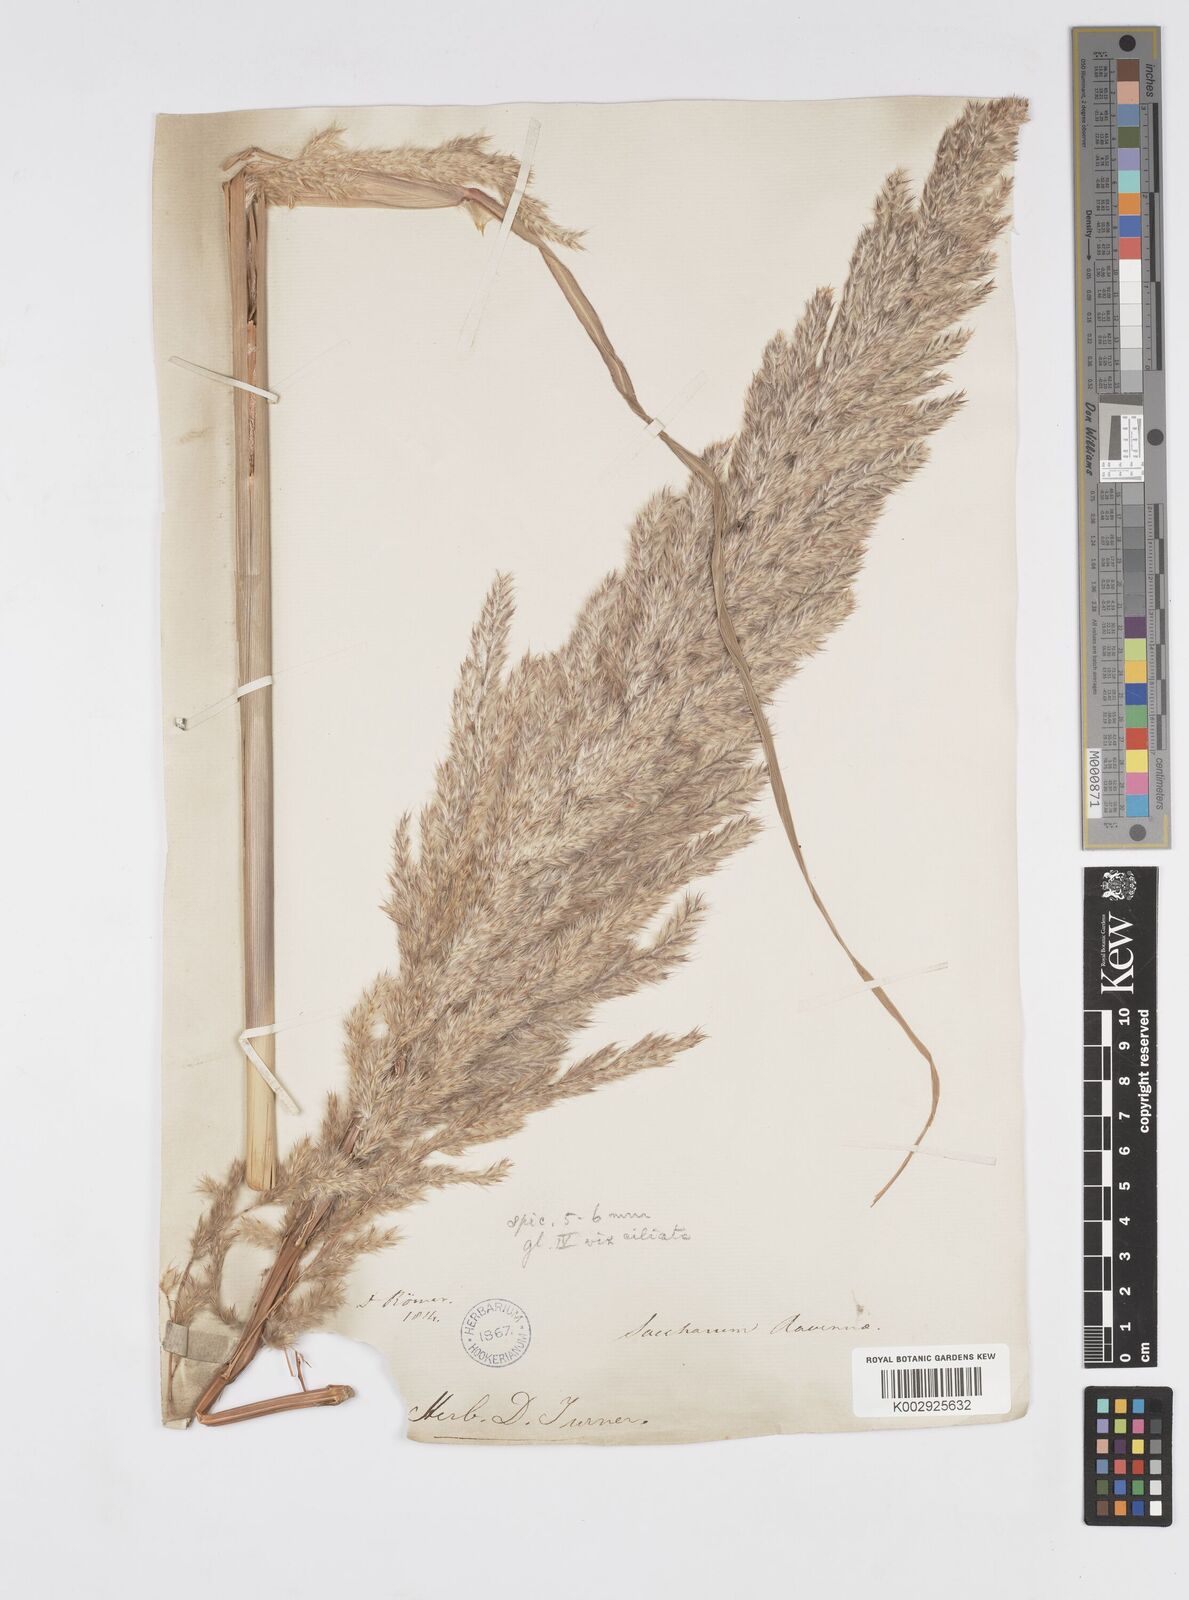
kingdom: Plantae
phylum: Tracheophyta
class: Liliopsida
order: Poales
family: Poaceae
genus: Tripidium
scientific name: Tripidium ravennae
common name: Ravenna grass
